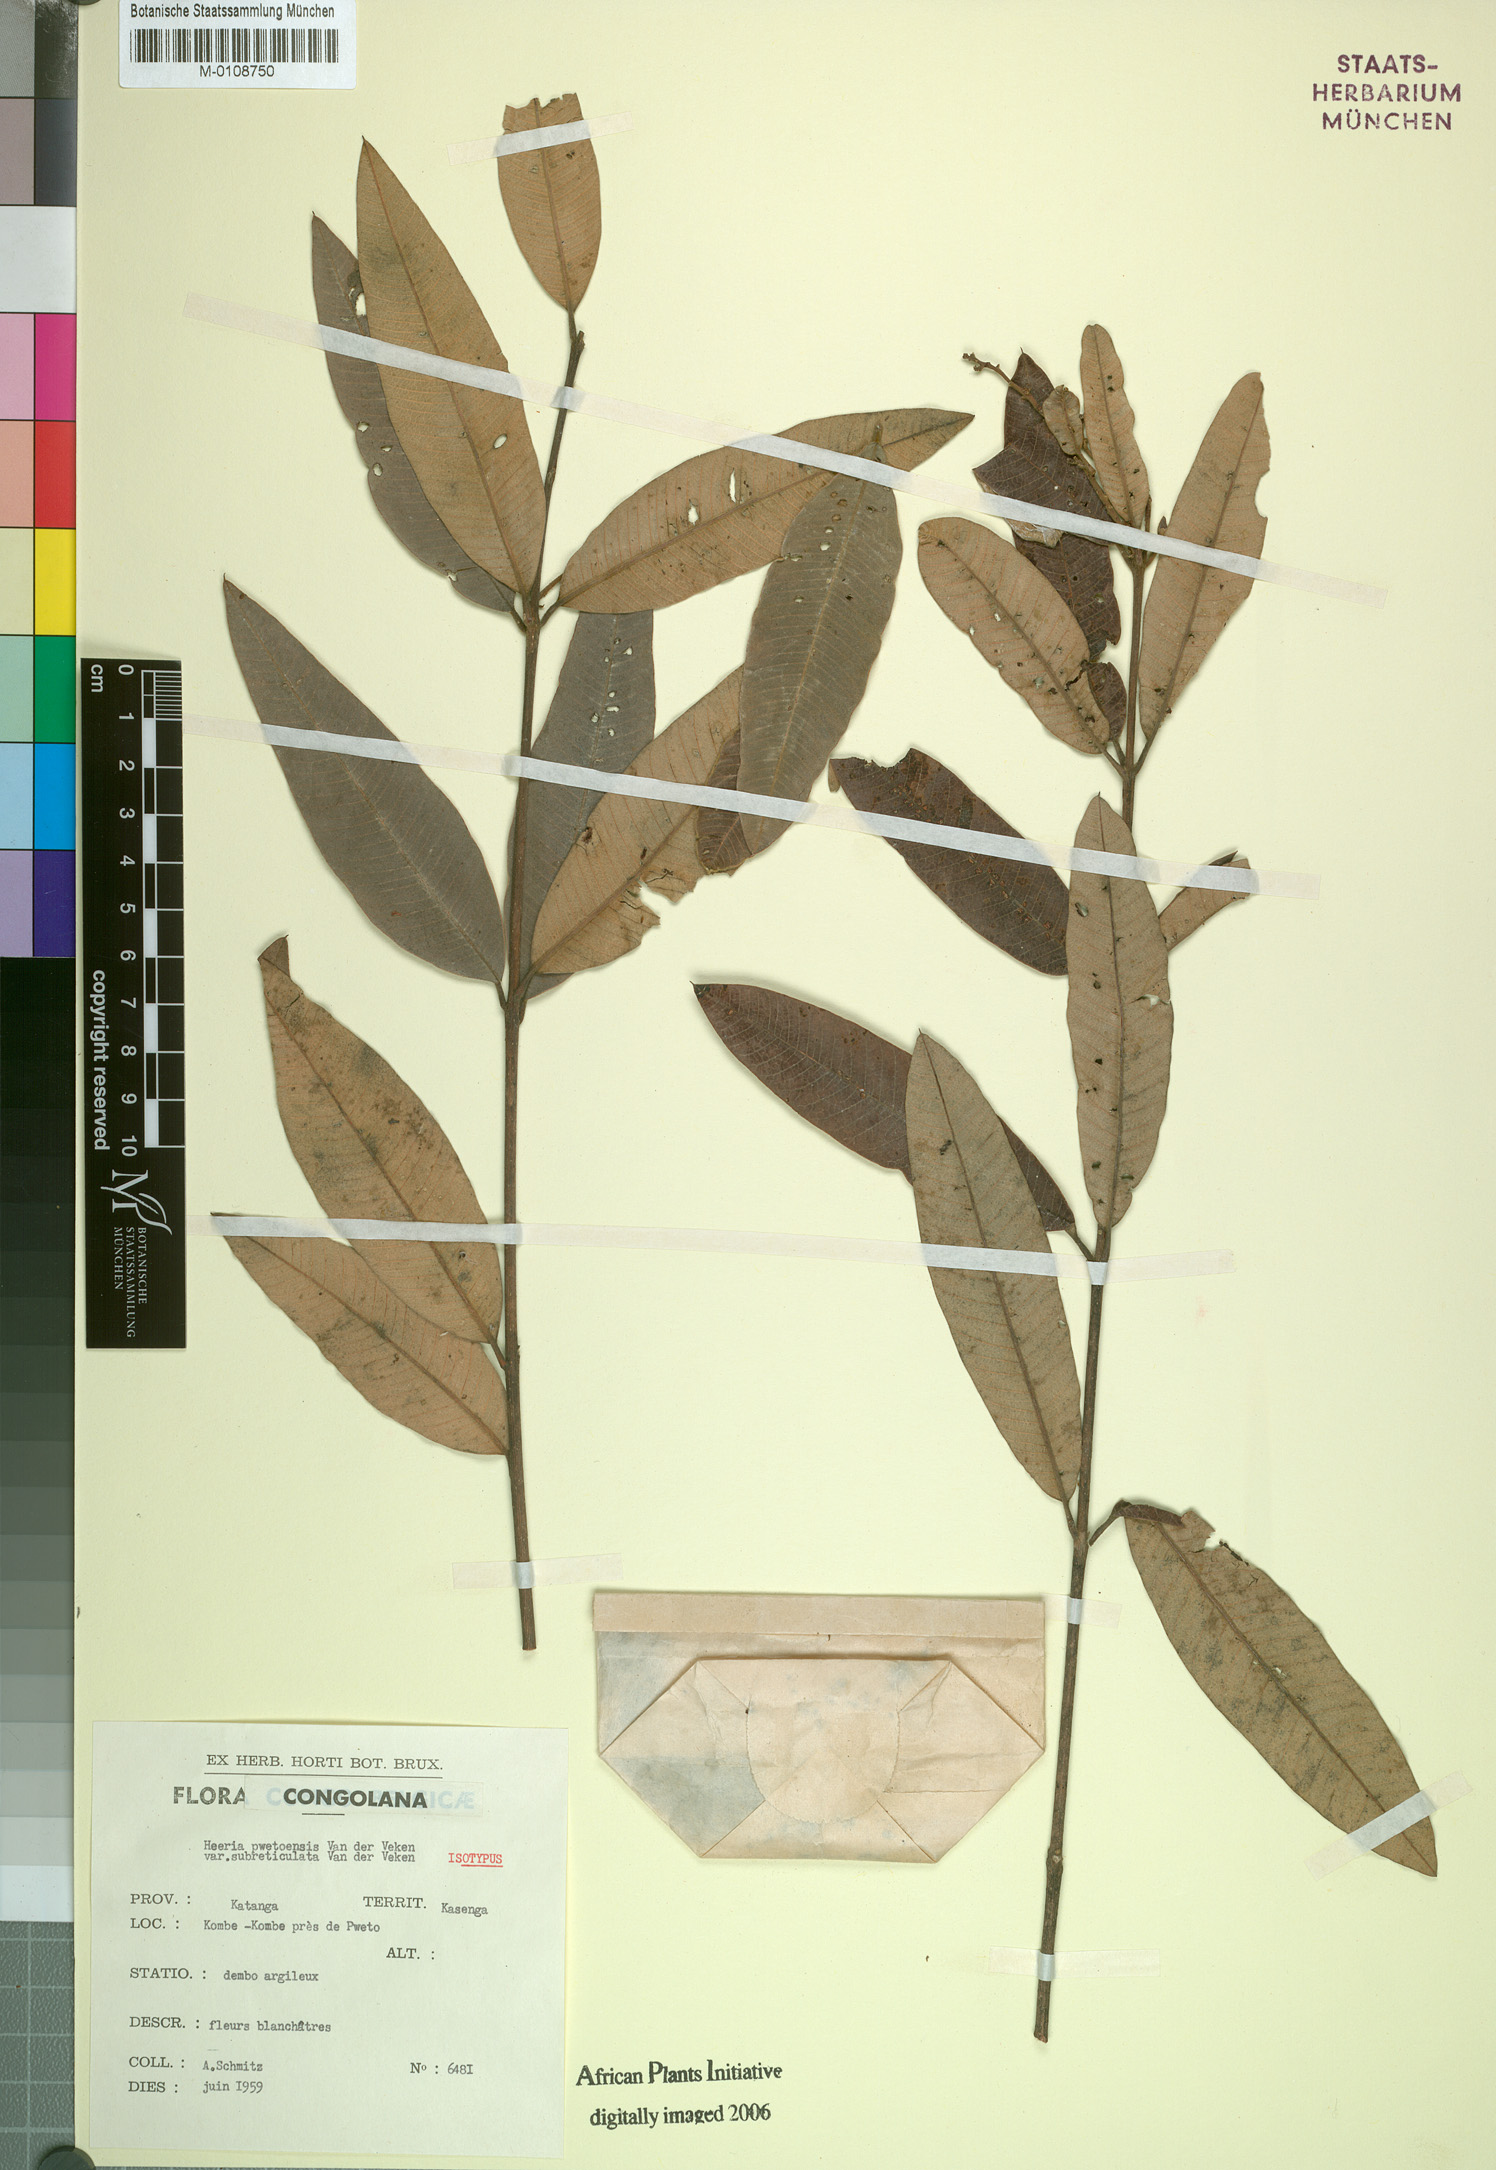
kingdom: Plantae
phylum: Tracheophyta
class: Magnoliopsida
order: Sapindales
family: Anacardiaceae
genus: Ozoroa
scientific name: Ozoroa pwetoensis
